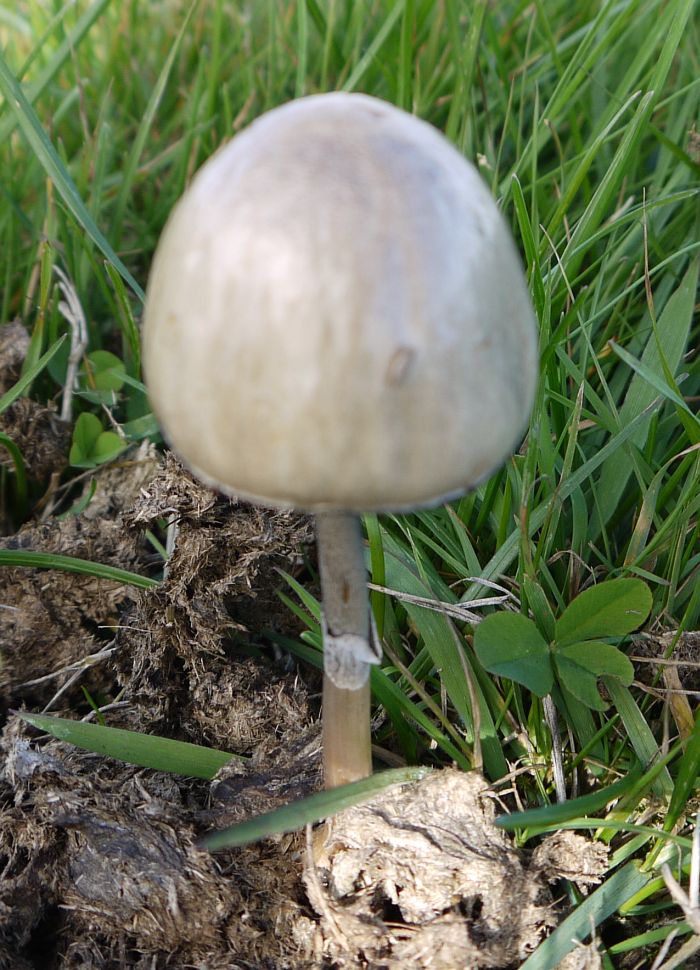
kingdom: Fungi
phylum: Basidiomycota
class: Agaricomycetes
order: Agaricales
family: Bolbitiaceae
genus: Panaeolus
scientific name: Panaeolus semiovatus
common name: ring-glanshat
